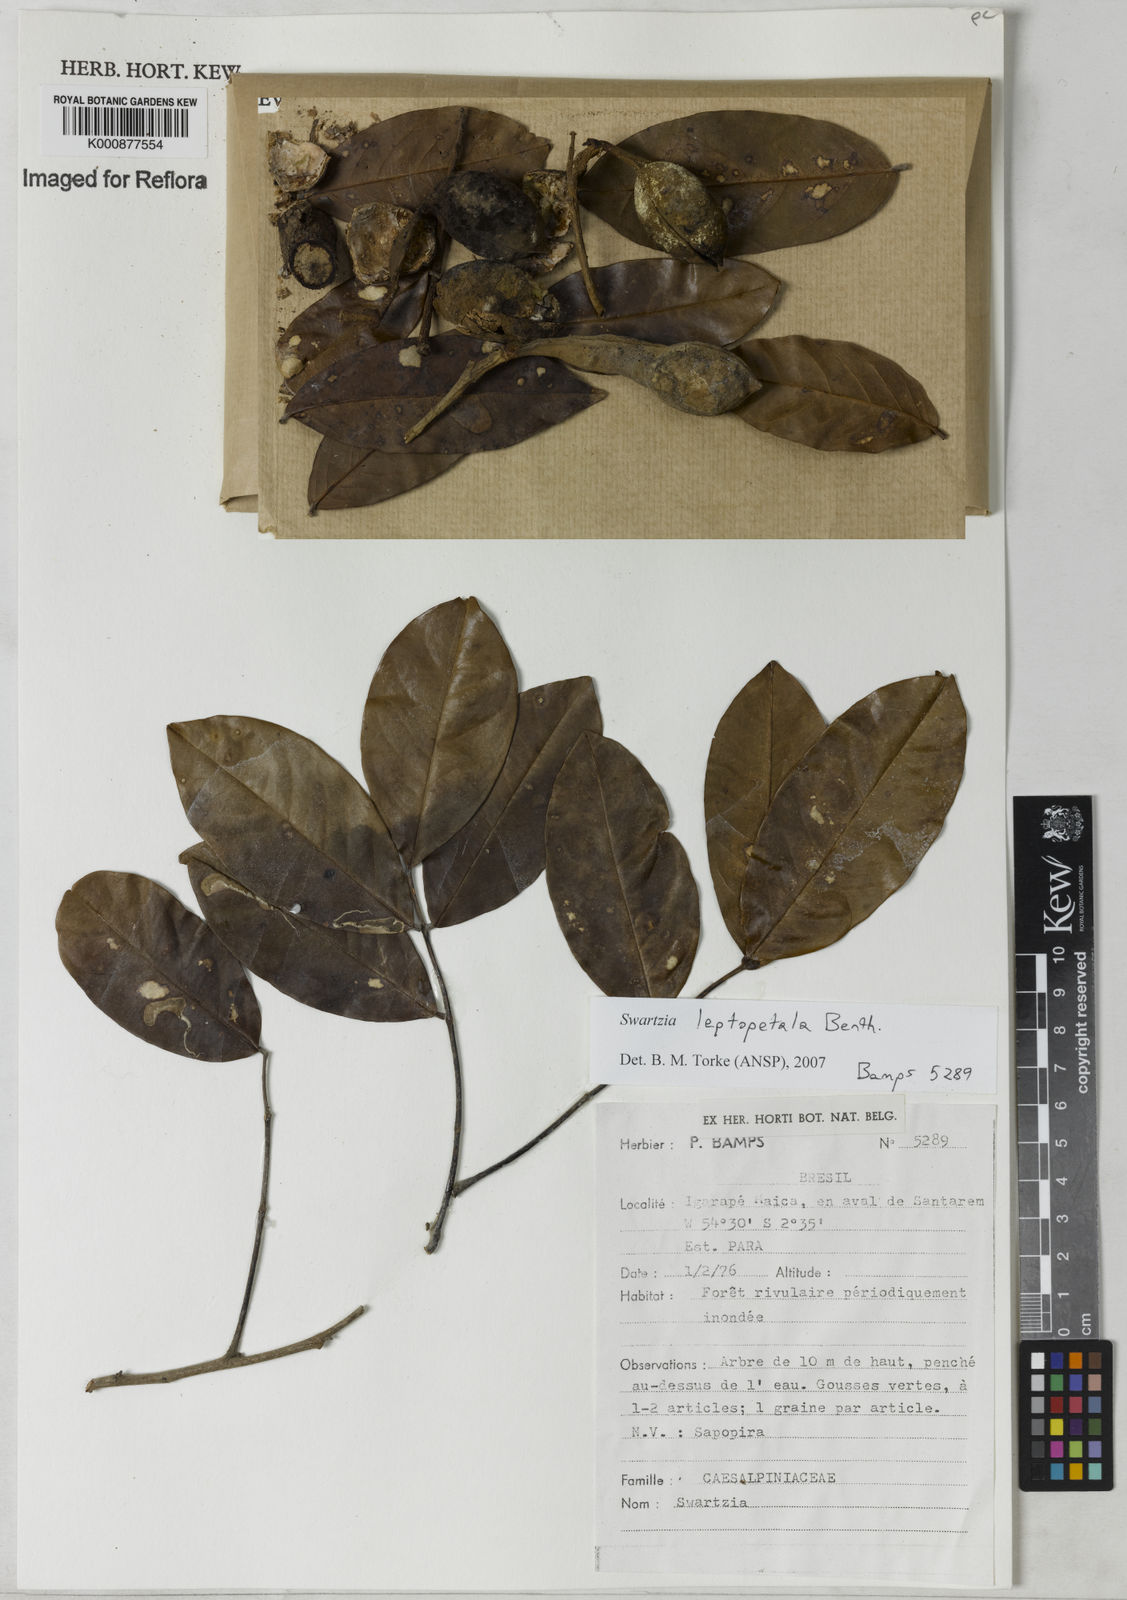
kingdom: Plantae
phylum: Tracheophyta
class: Magnoliopsida
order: Fabales
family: Fabaceae
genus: Swartzia
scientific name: Swartzia leptopetala
